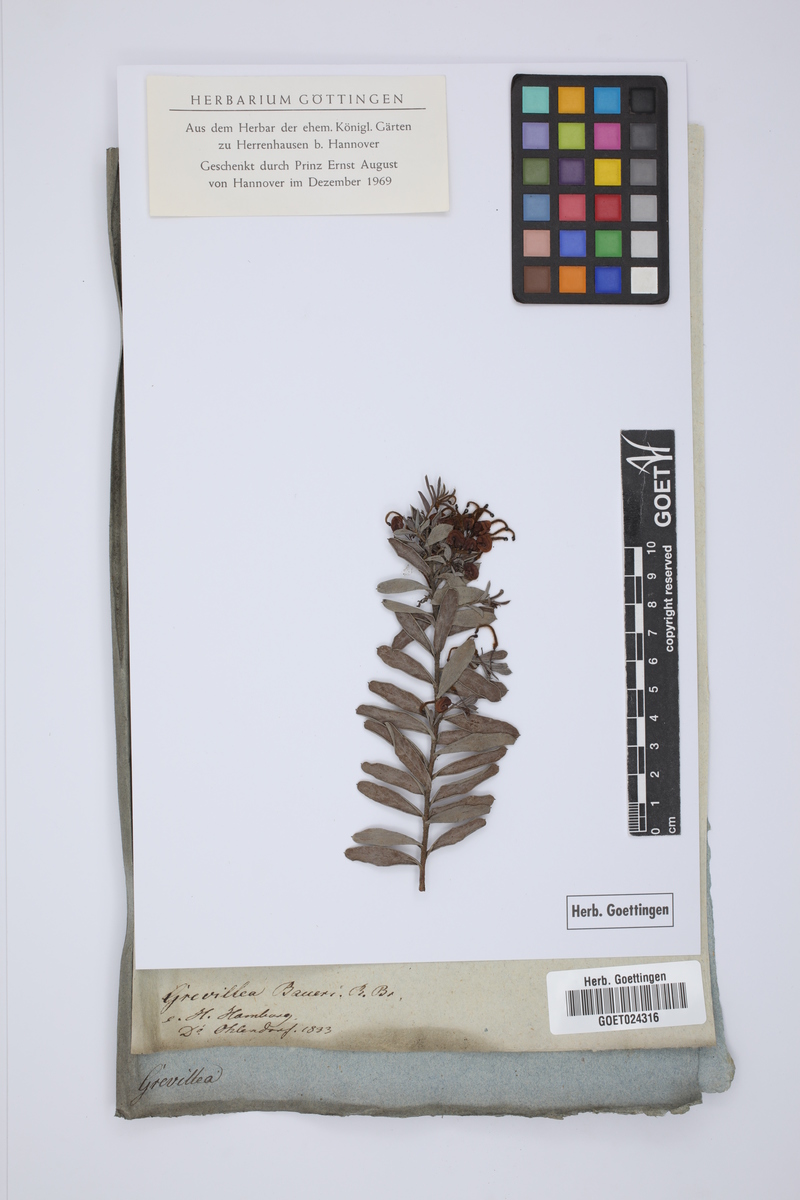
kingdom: Plantae
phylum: Tracheophyta
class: Magnoliopsida
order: Proteales
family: Proteaceae
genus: Grevillea
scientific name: Grevillea baueri
